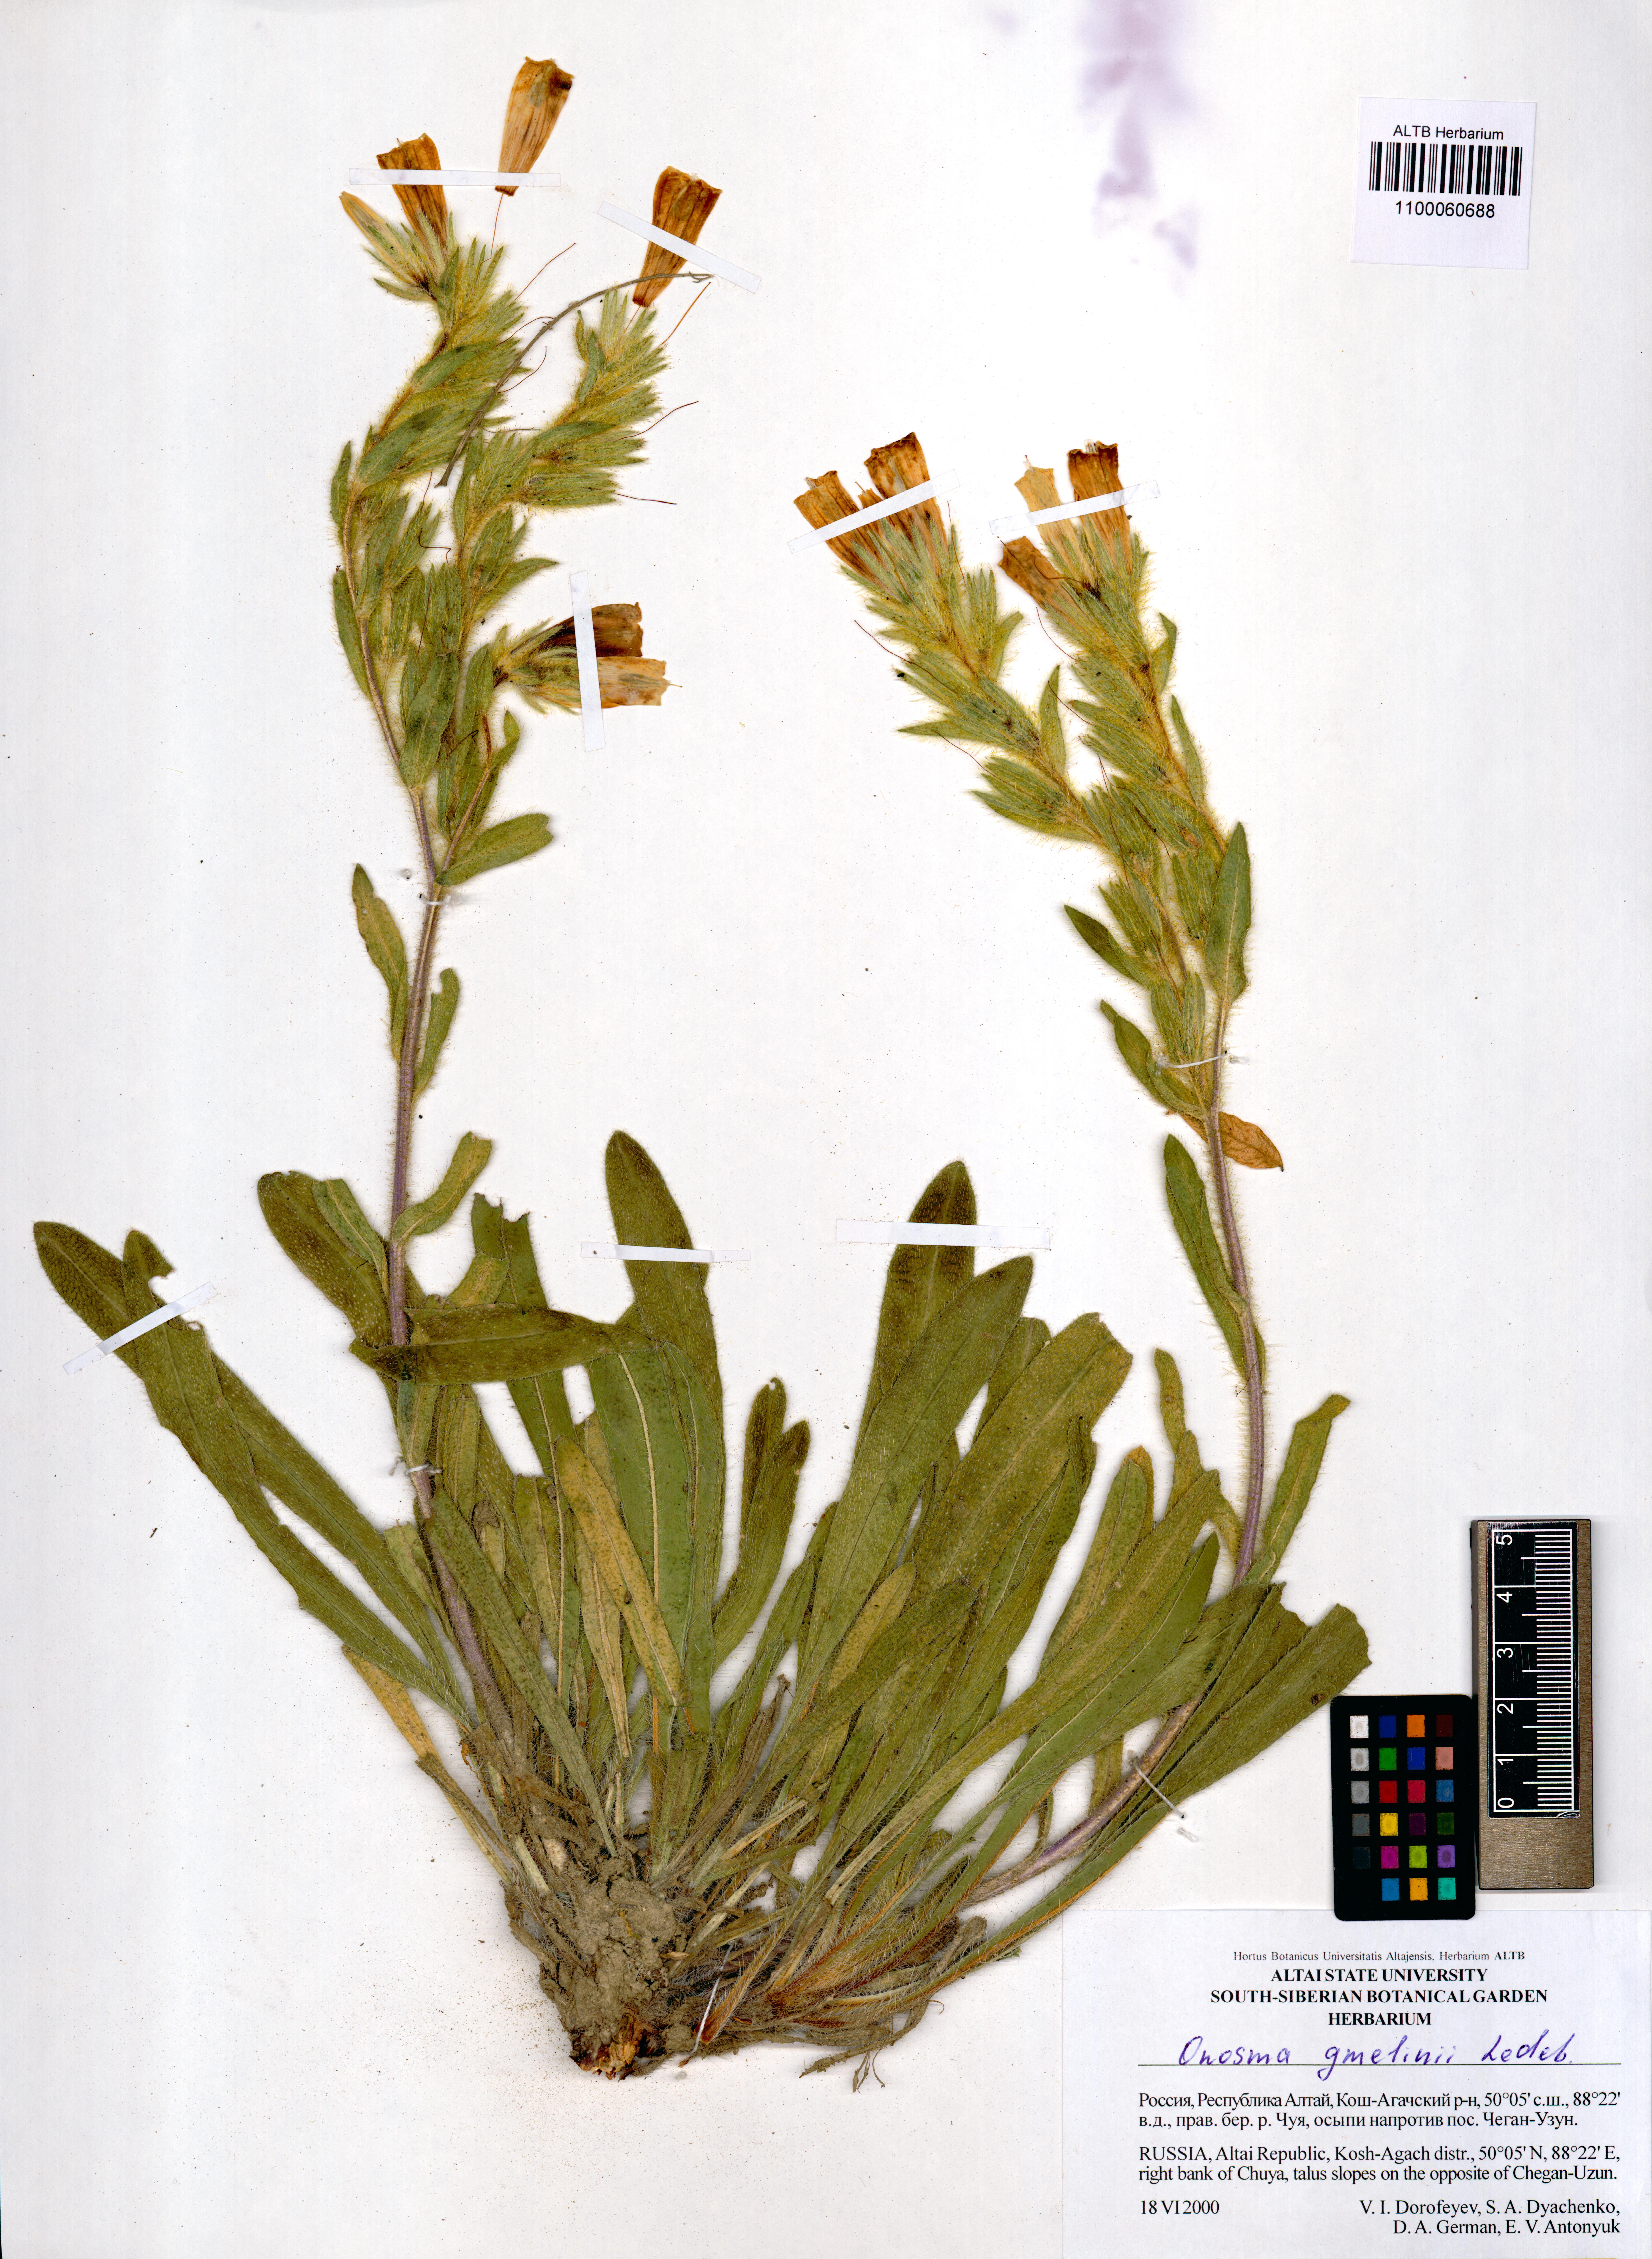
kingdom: Plantae
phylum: Tracheophyta
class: Magnoliopsida
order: Boraginales
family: Boraginaceae
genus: Onosma
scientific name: Onosma gmelinii
